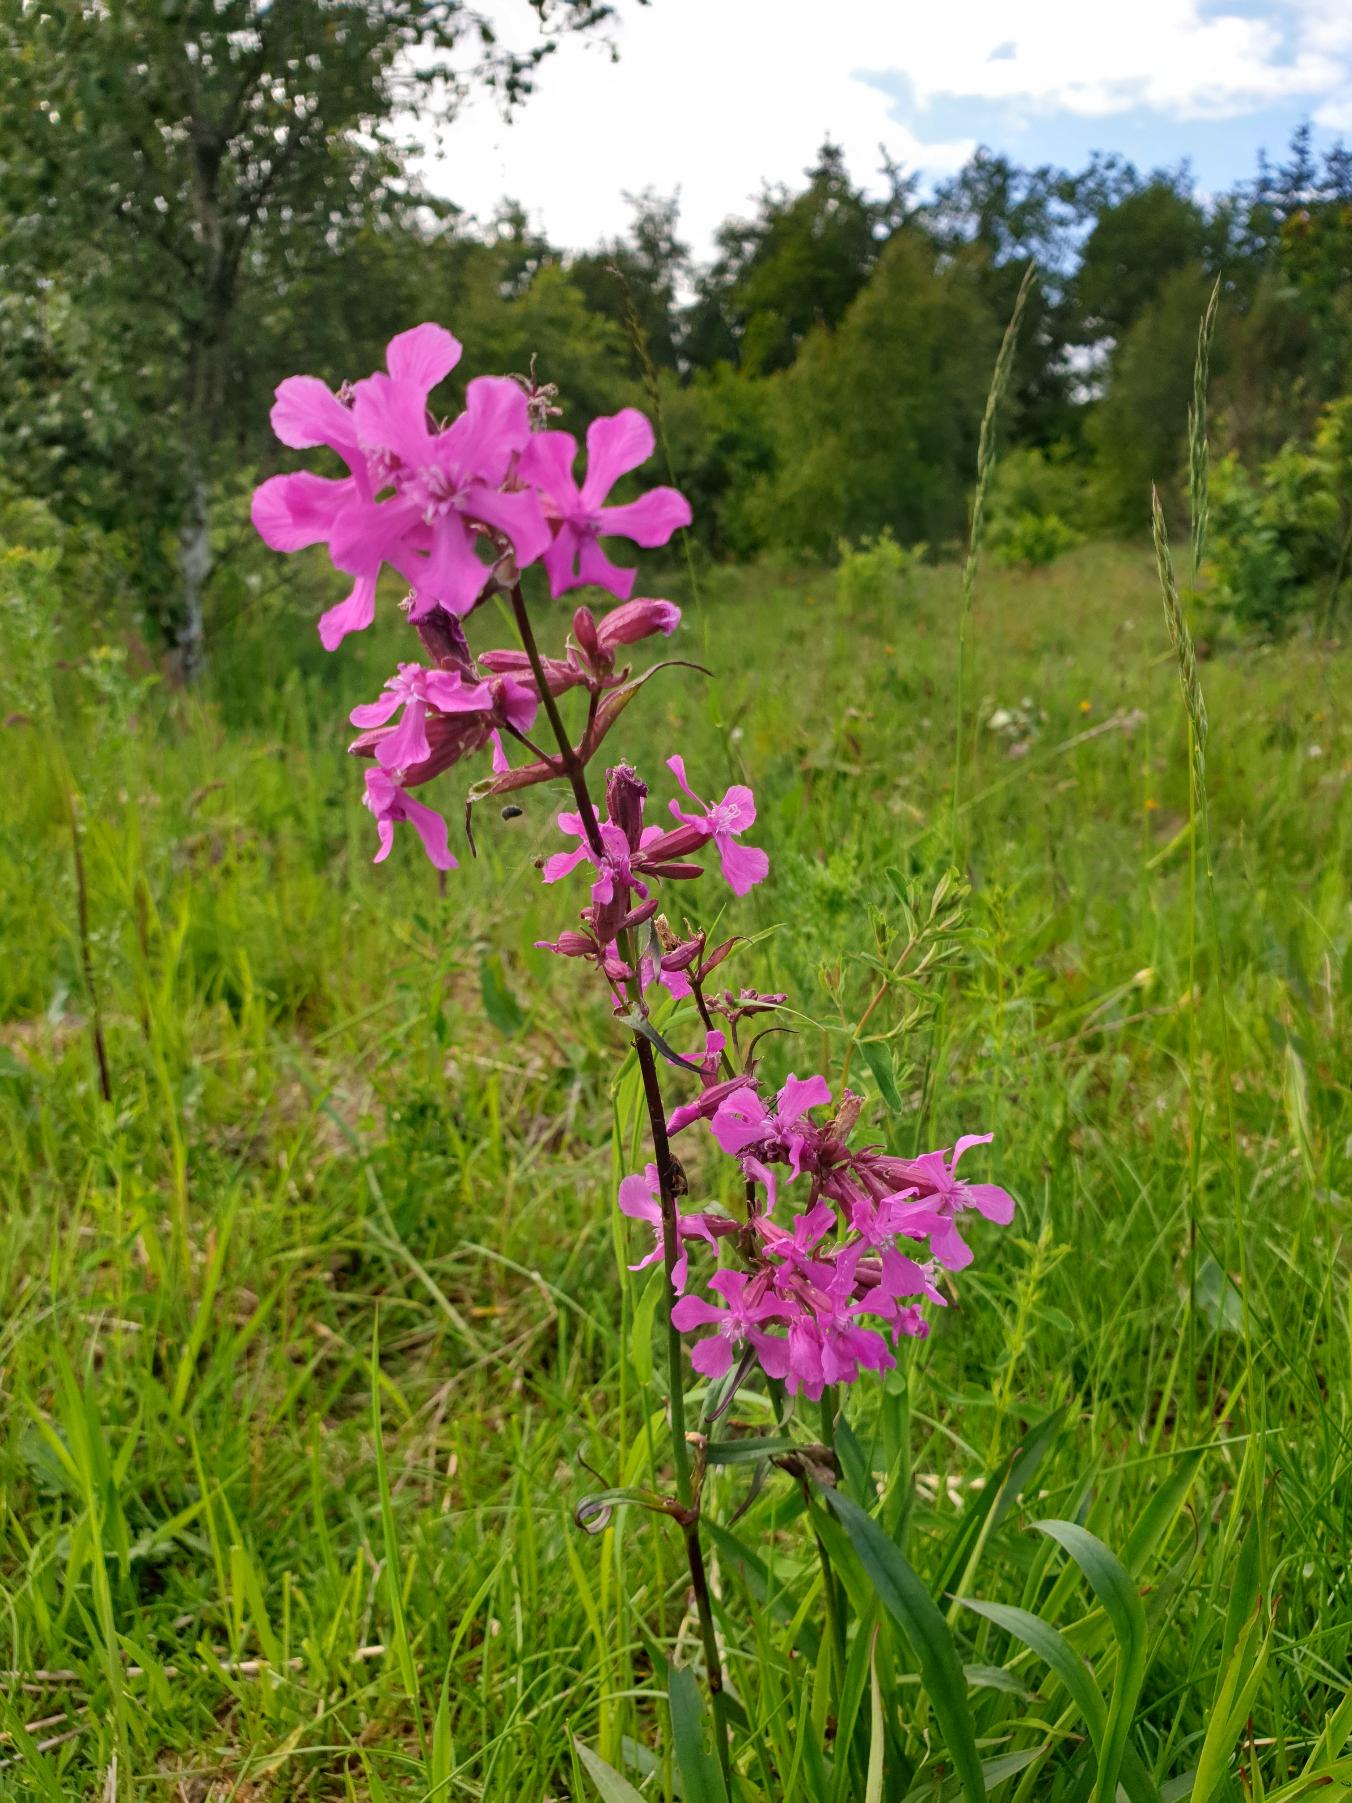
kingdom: Plantae
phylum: Tracheophyta
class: Magnoliopsida
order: Caryophyllales
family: Caryophyllaceae
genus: Viscaria
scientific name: Viscaria vulgaris
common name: Tjærenellike
